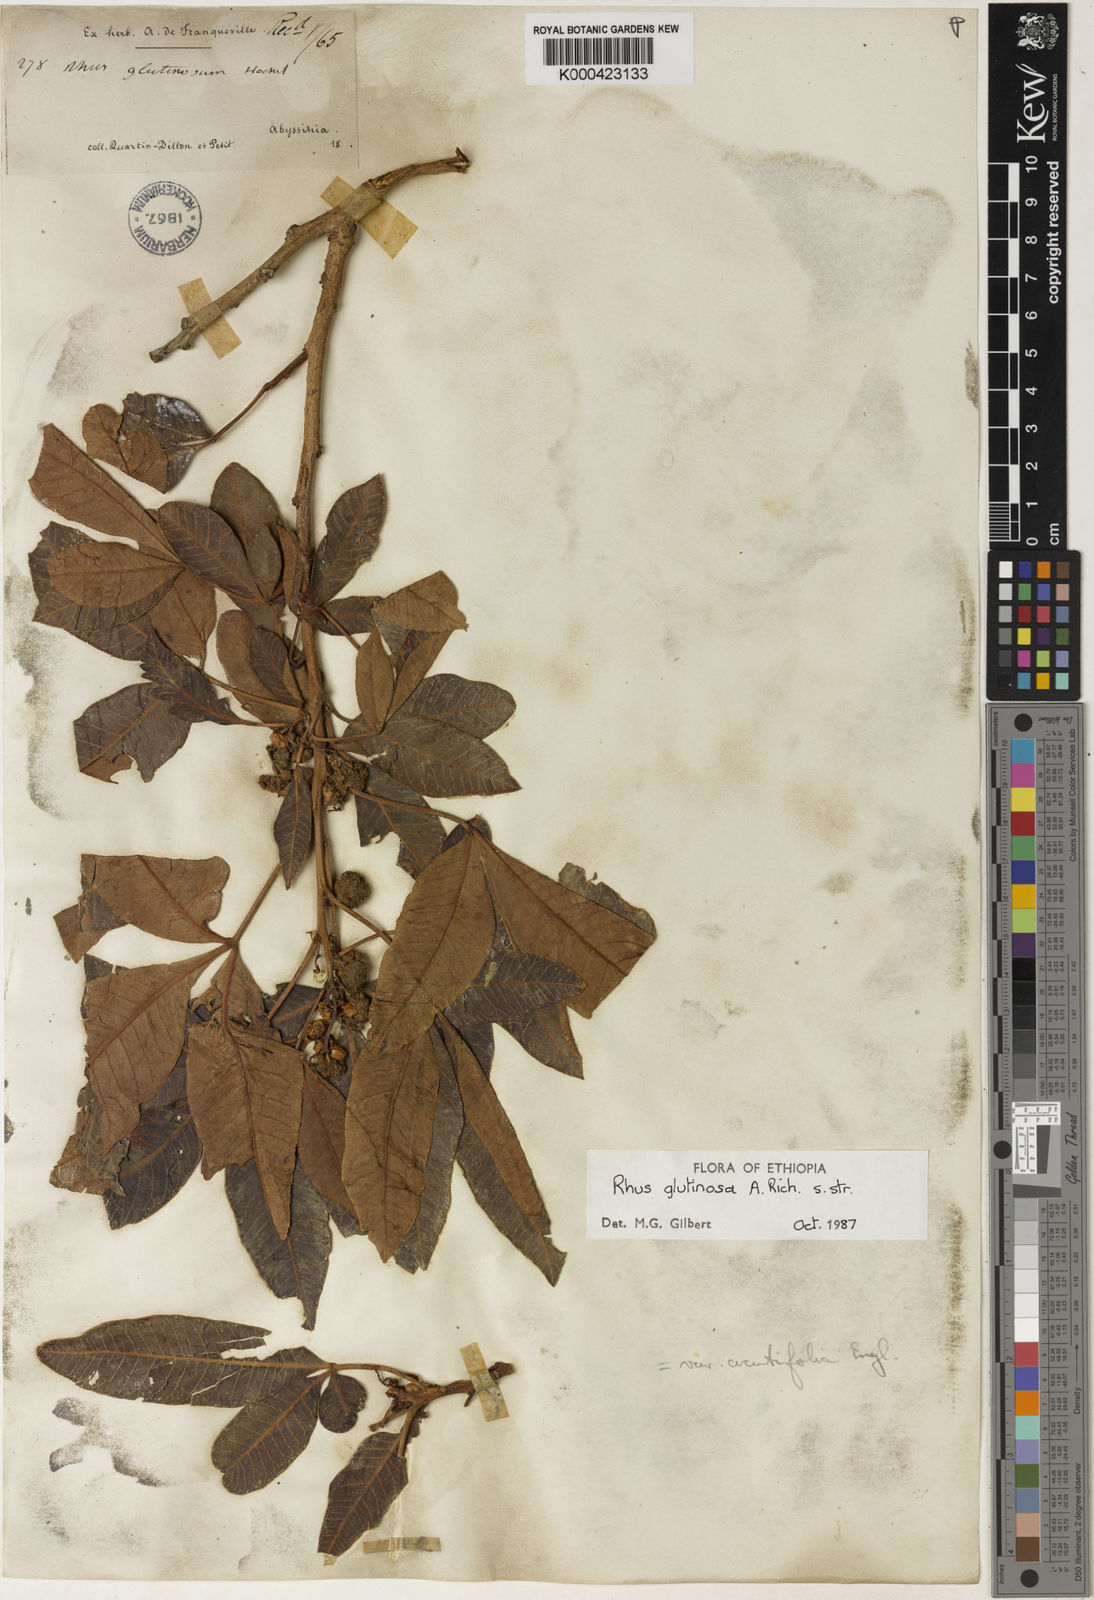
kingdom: Plantae
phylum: Tracheophyta
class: Magnoliopsida
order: Sapindales
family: Anacardiaceae
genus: Searsia
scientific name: Searsia glutinosa
